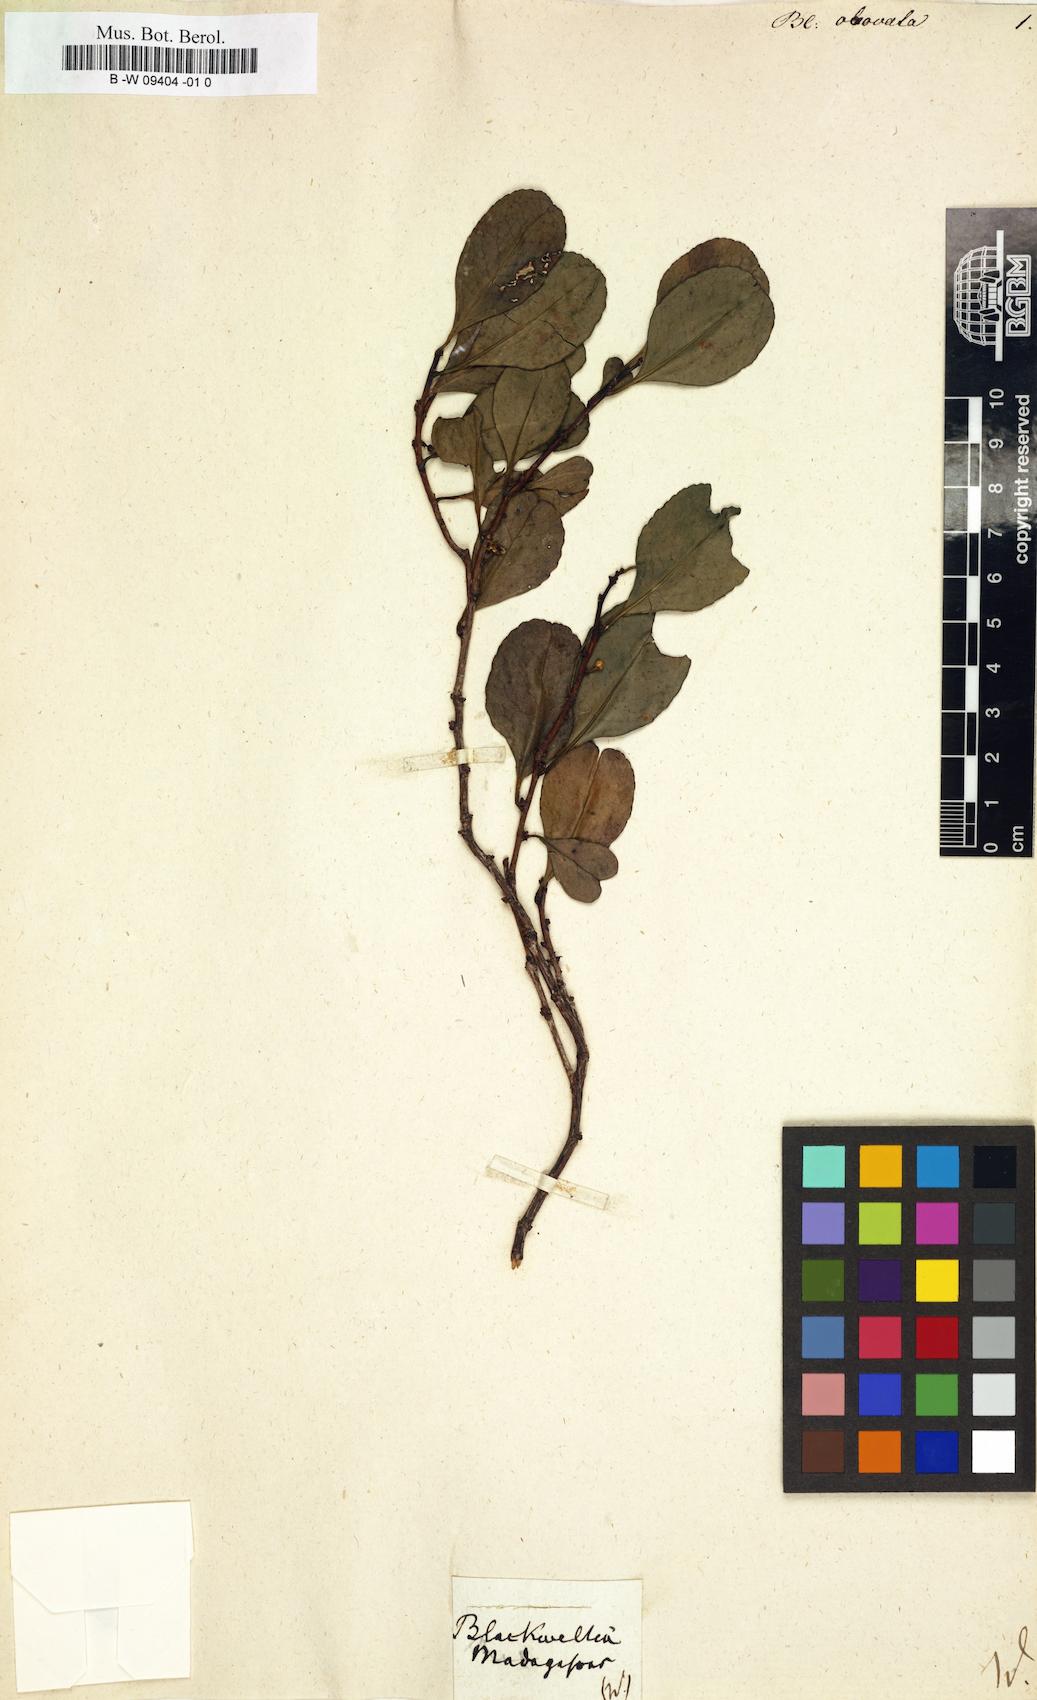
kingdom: Plantae
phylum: Tracheophyta
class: Magnoliopsida
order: Malpighiales
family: Flacourtiaceae
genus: Blackwellia
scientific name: Blackwellia
